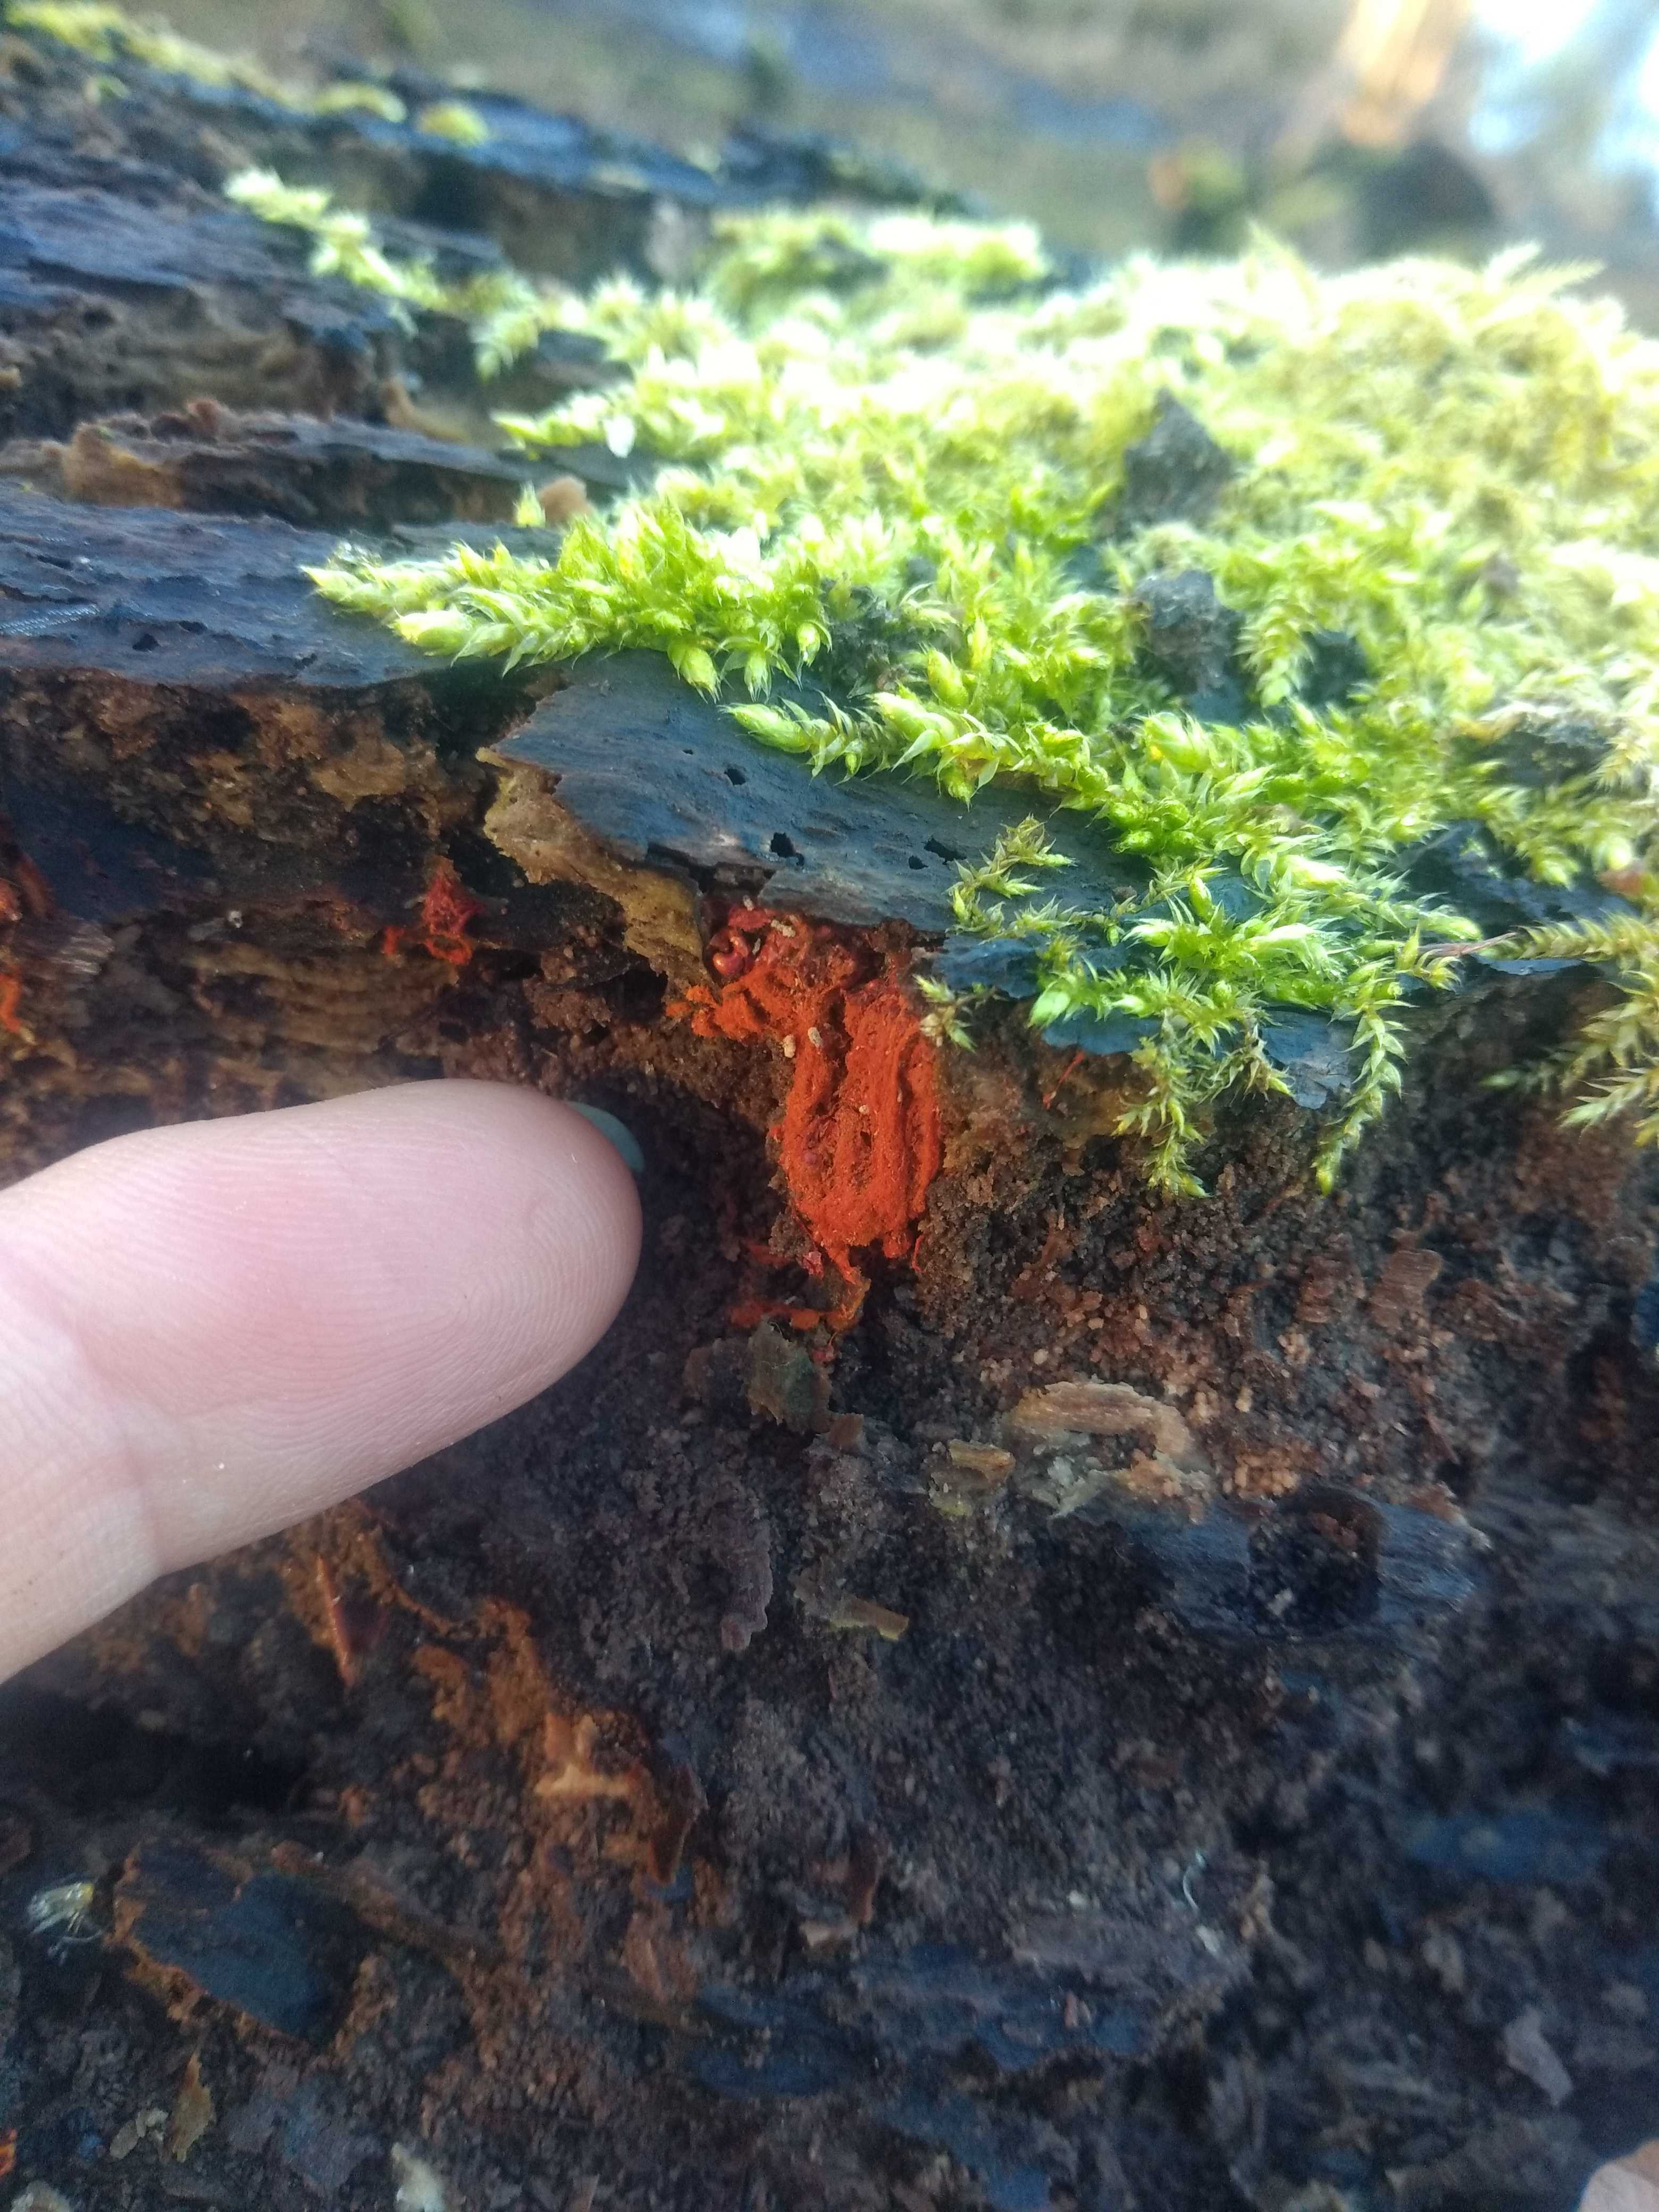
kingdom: Protozoa
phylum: Mycetozoa
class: Myxomycetes
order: Trichiales
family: Trichiaceae
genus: Metatrichia
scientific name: Metatrichia vesparia
